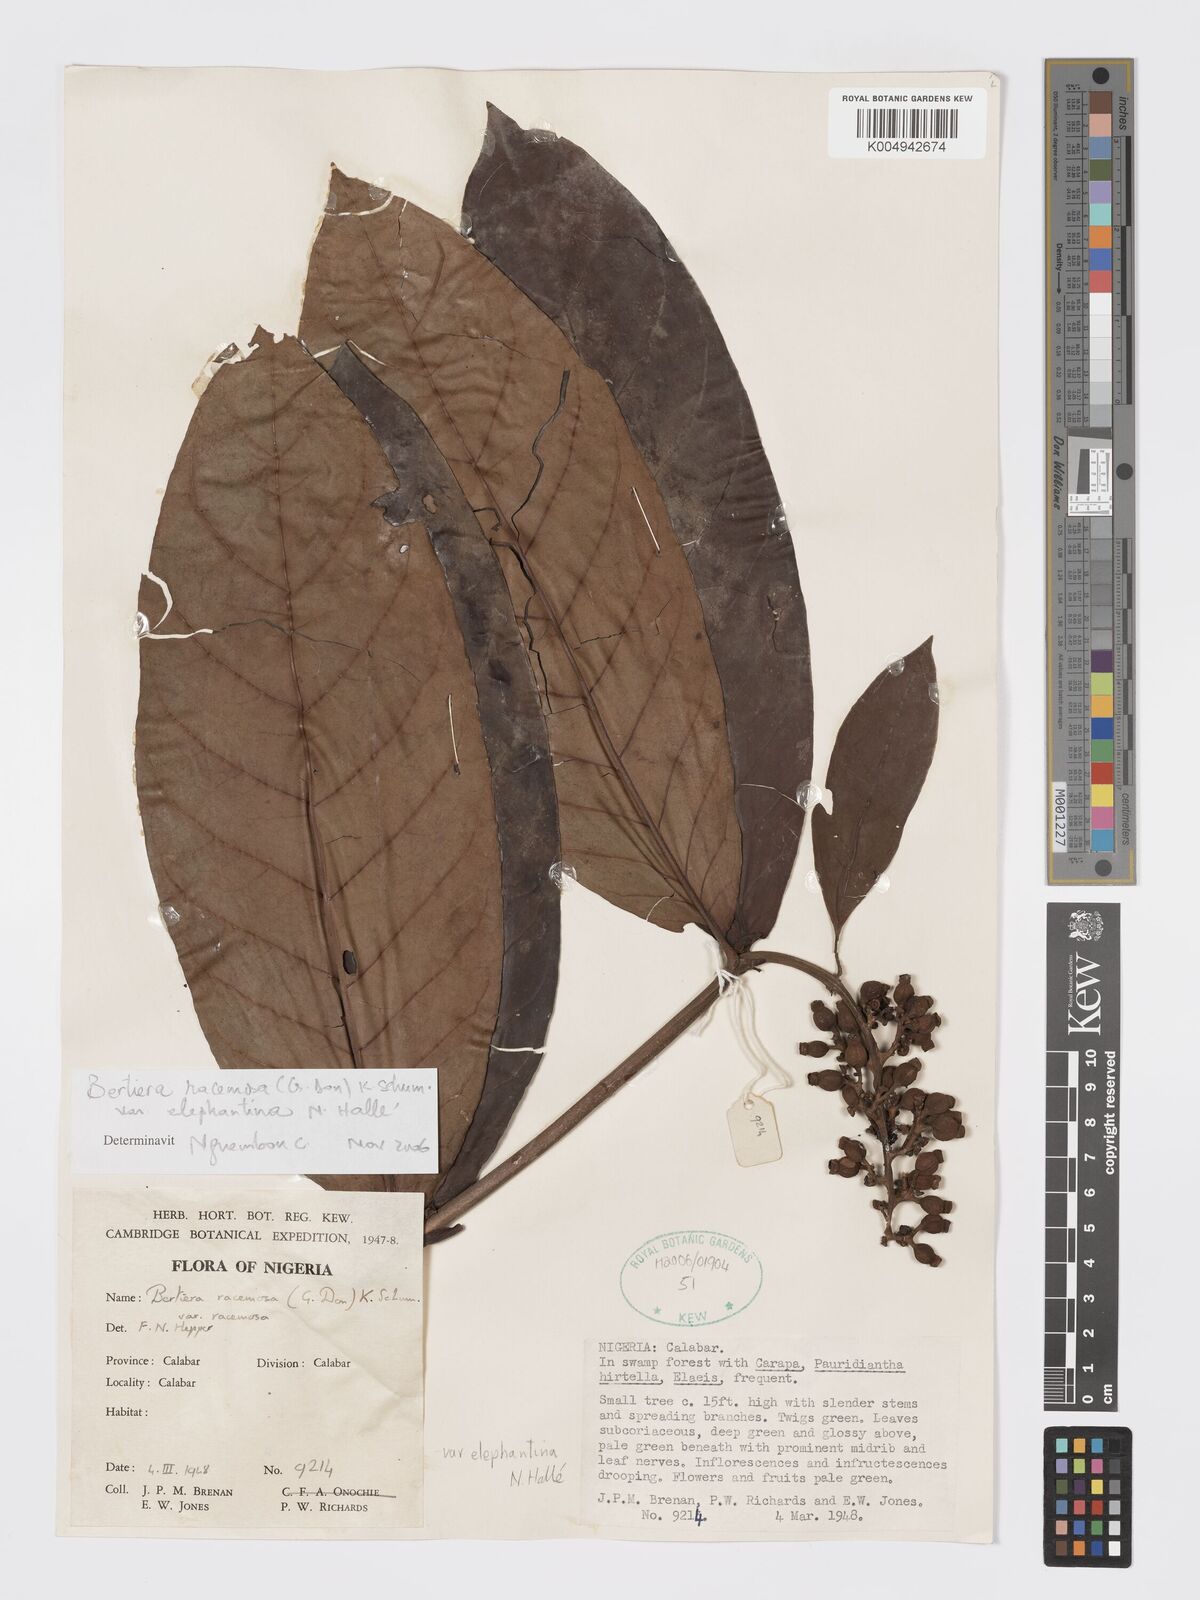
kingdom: Plantae
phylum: Tracheophyta
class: Magnoliopsida
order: Gentianales
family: Rubiaceae
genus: Bertiera
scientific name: Bertiera racemosa
